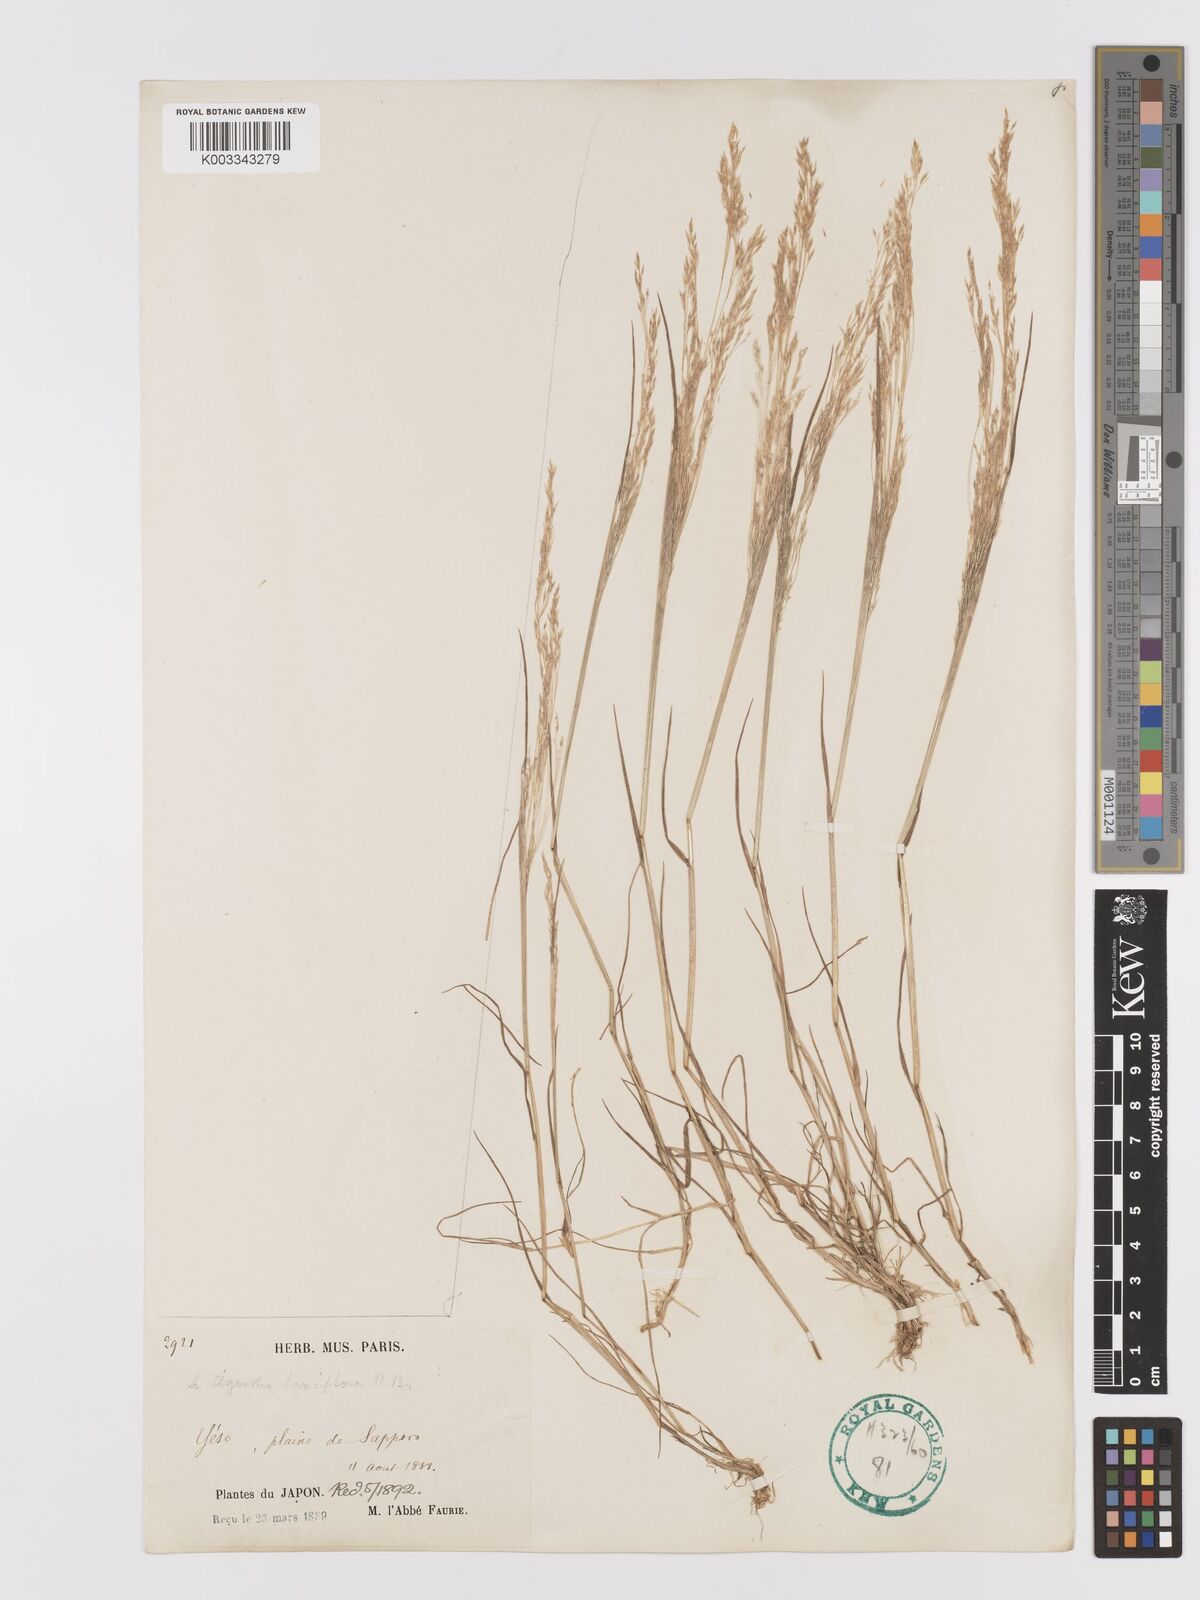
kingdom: Plantae
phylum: Tracheophyta
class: Liliopsida
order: Poales
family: Poaceae
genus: Agrostis
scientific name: Agrostis
